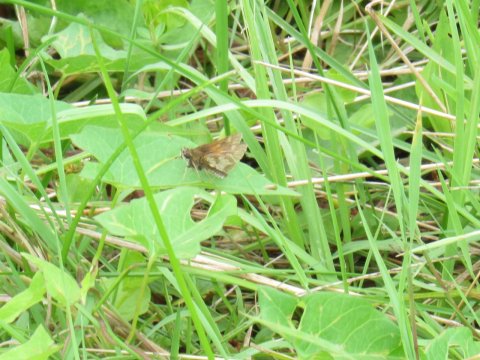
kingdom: Animalia
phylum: Arthropoda
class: Insecta
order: Lepidoptera
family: Hesperiidae
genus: Polites
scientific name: Polites coras
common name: Peck's Skipper
